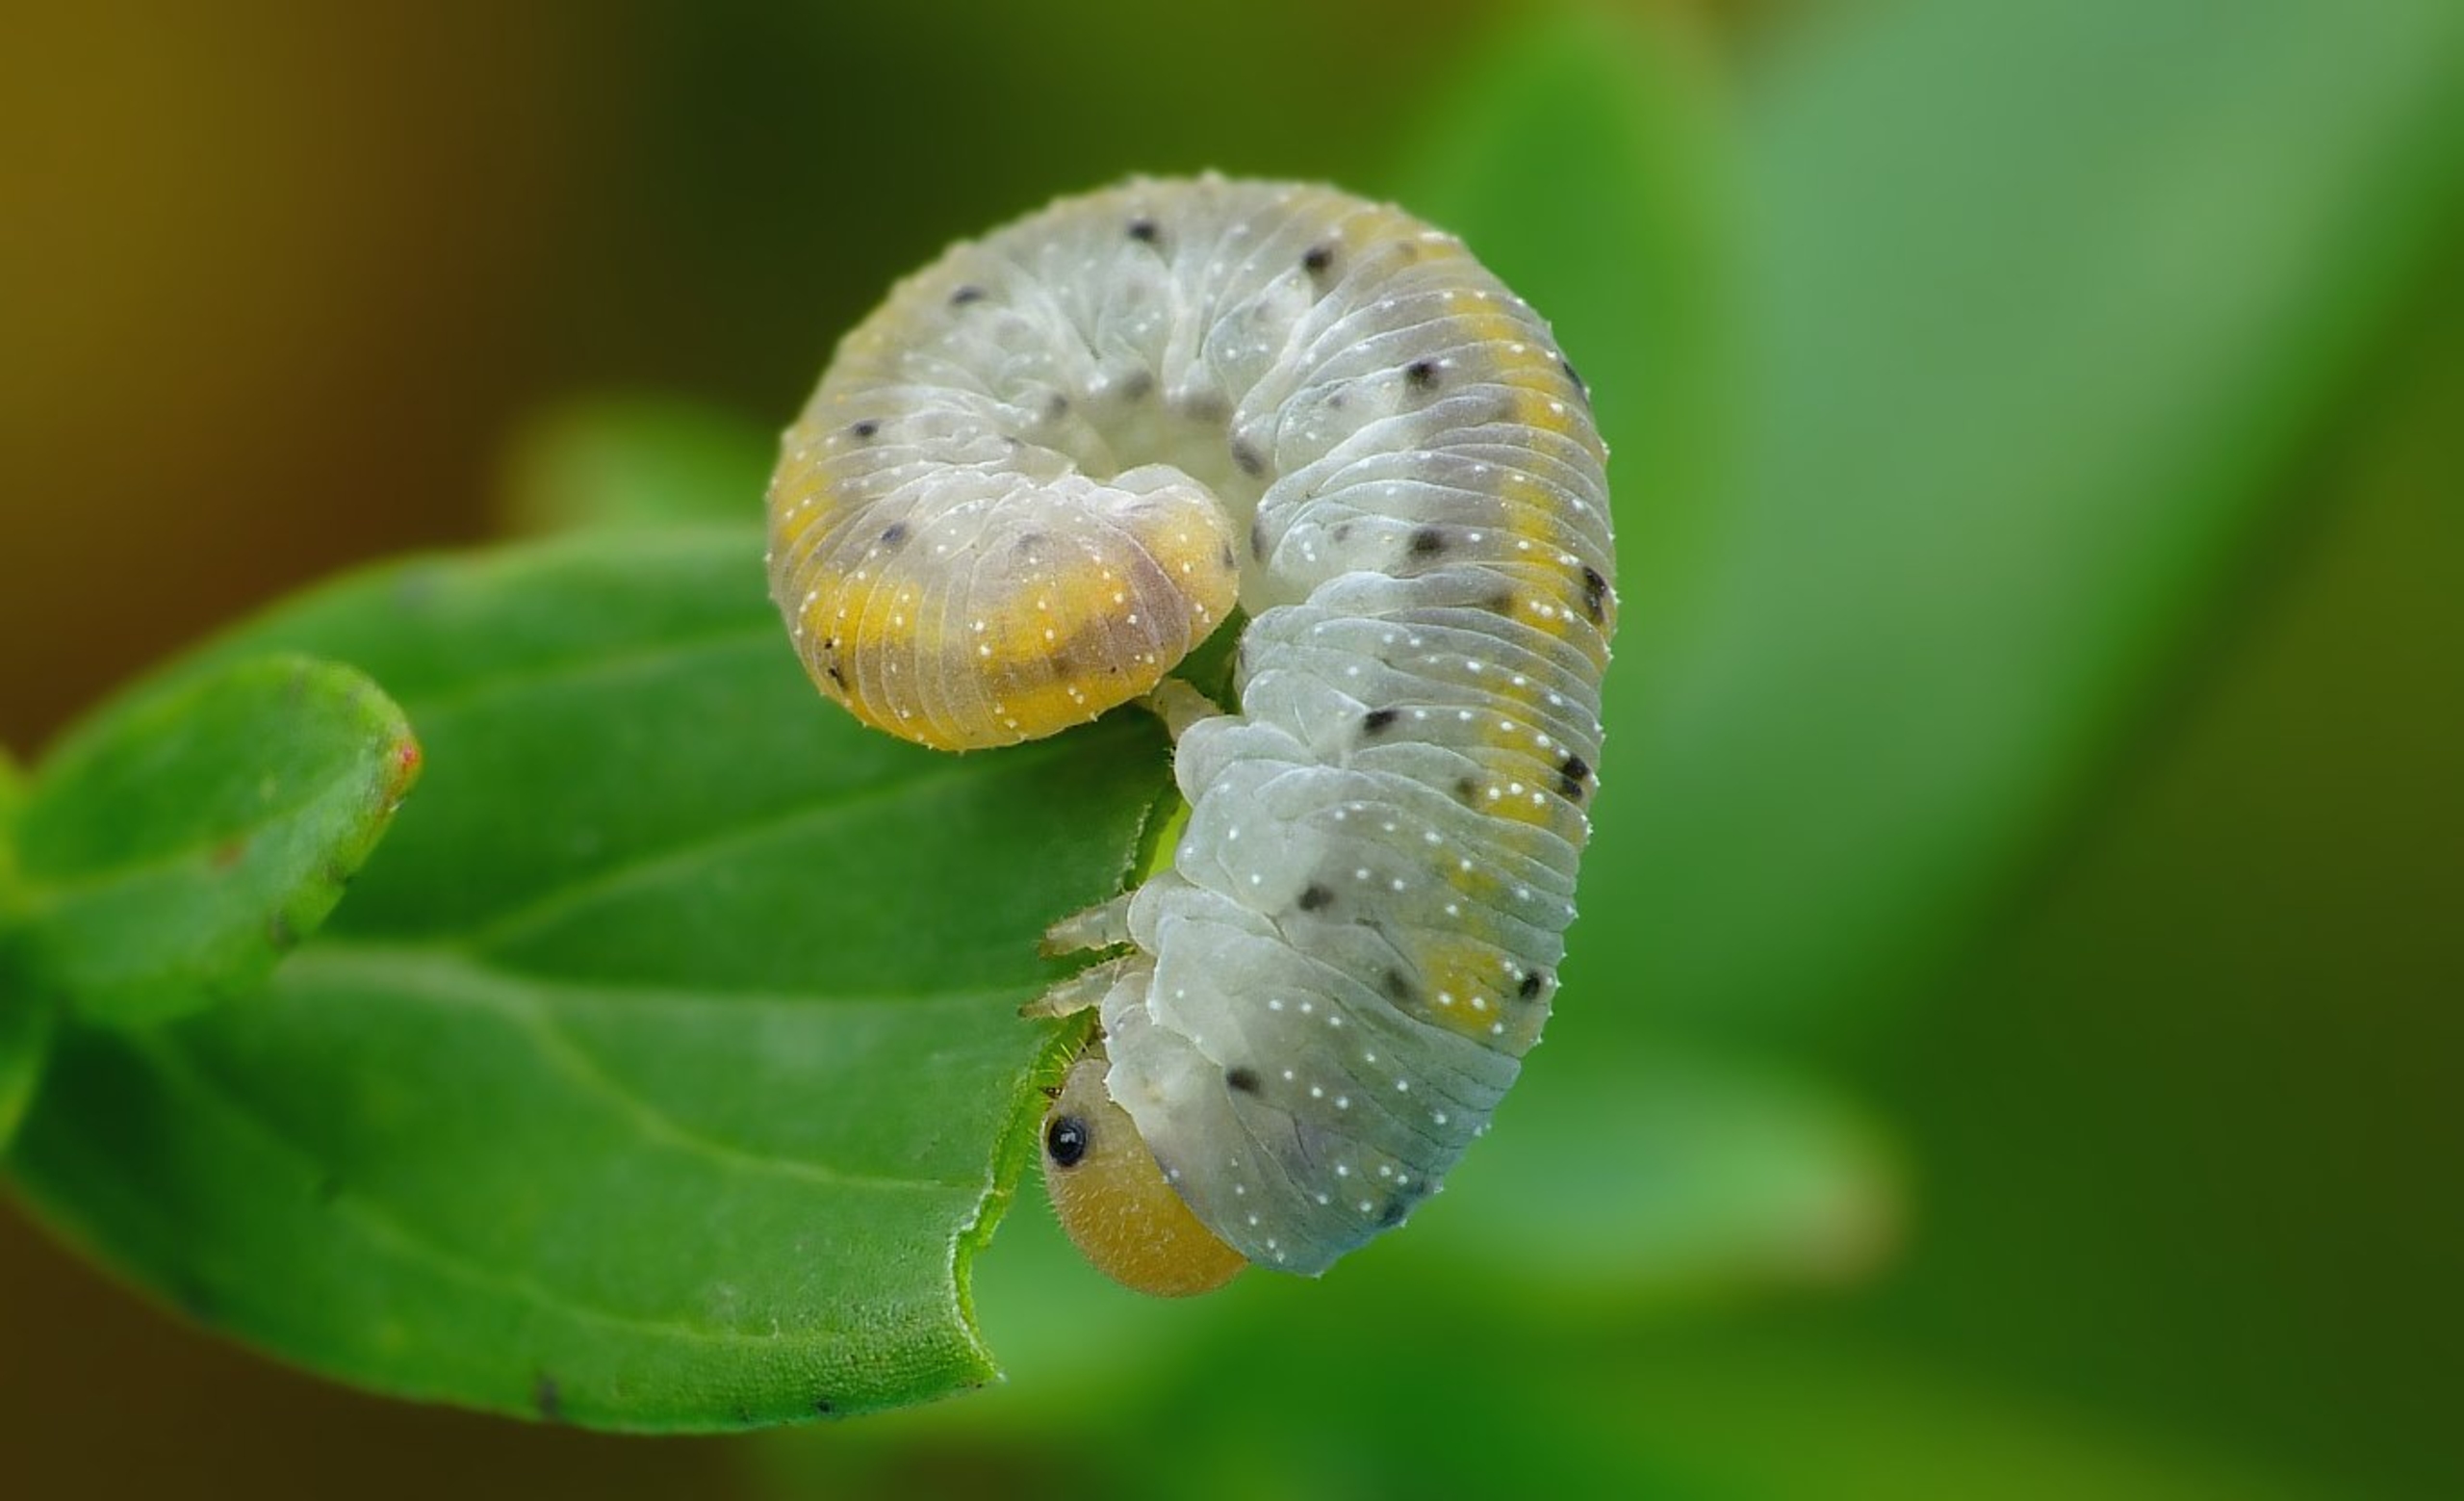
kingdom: Animalia
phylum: Arthropoda
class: Insecta
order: Hymenoptera
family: Tenthredinidae
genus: Tenthredo
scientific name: Tenthredo amoena
